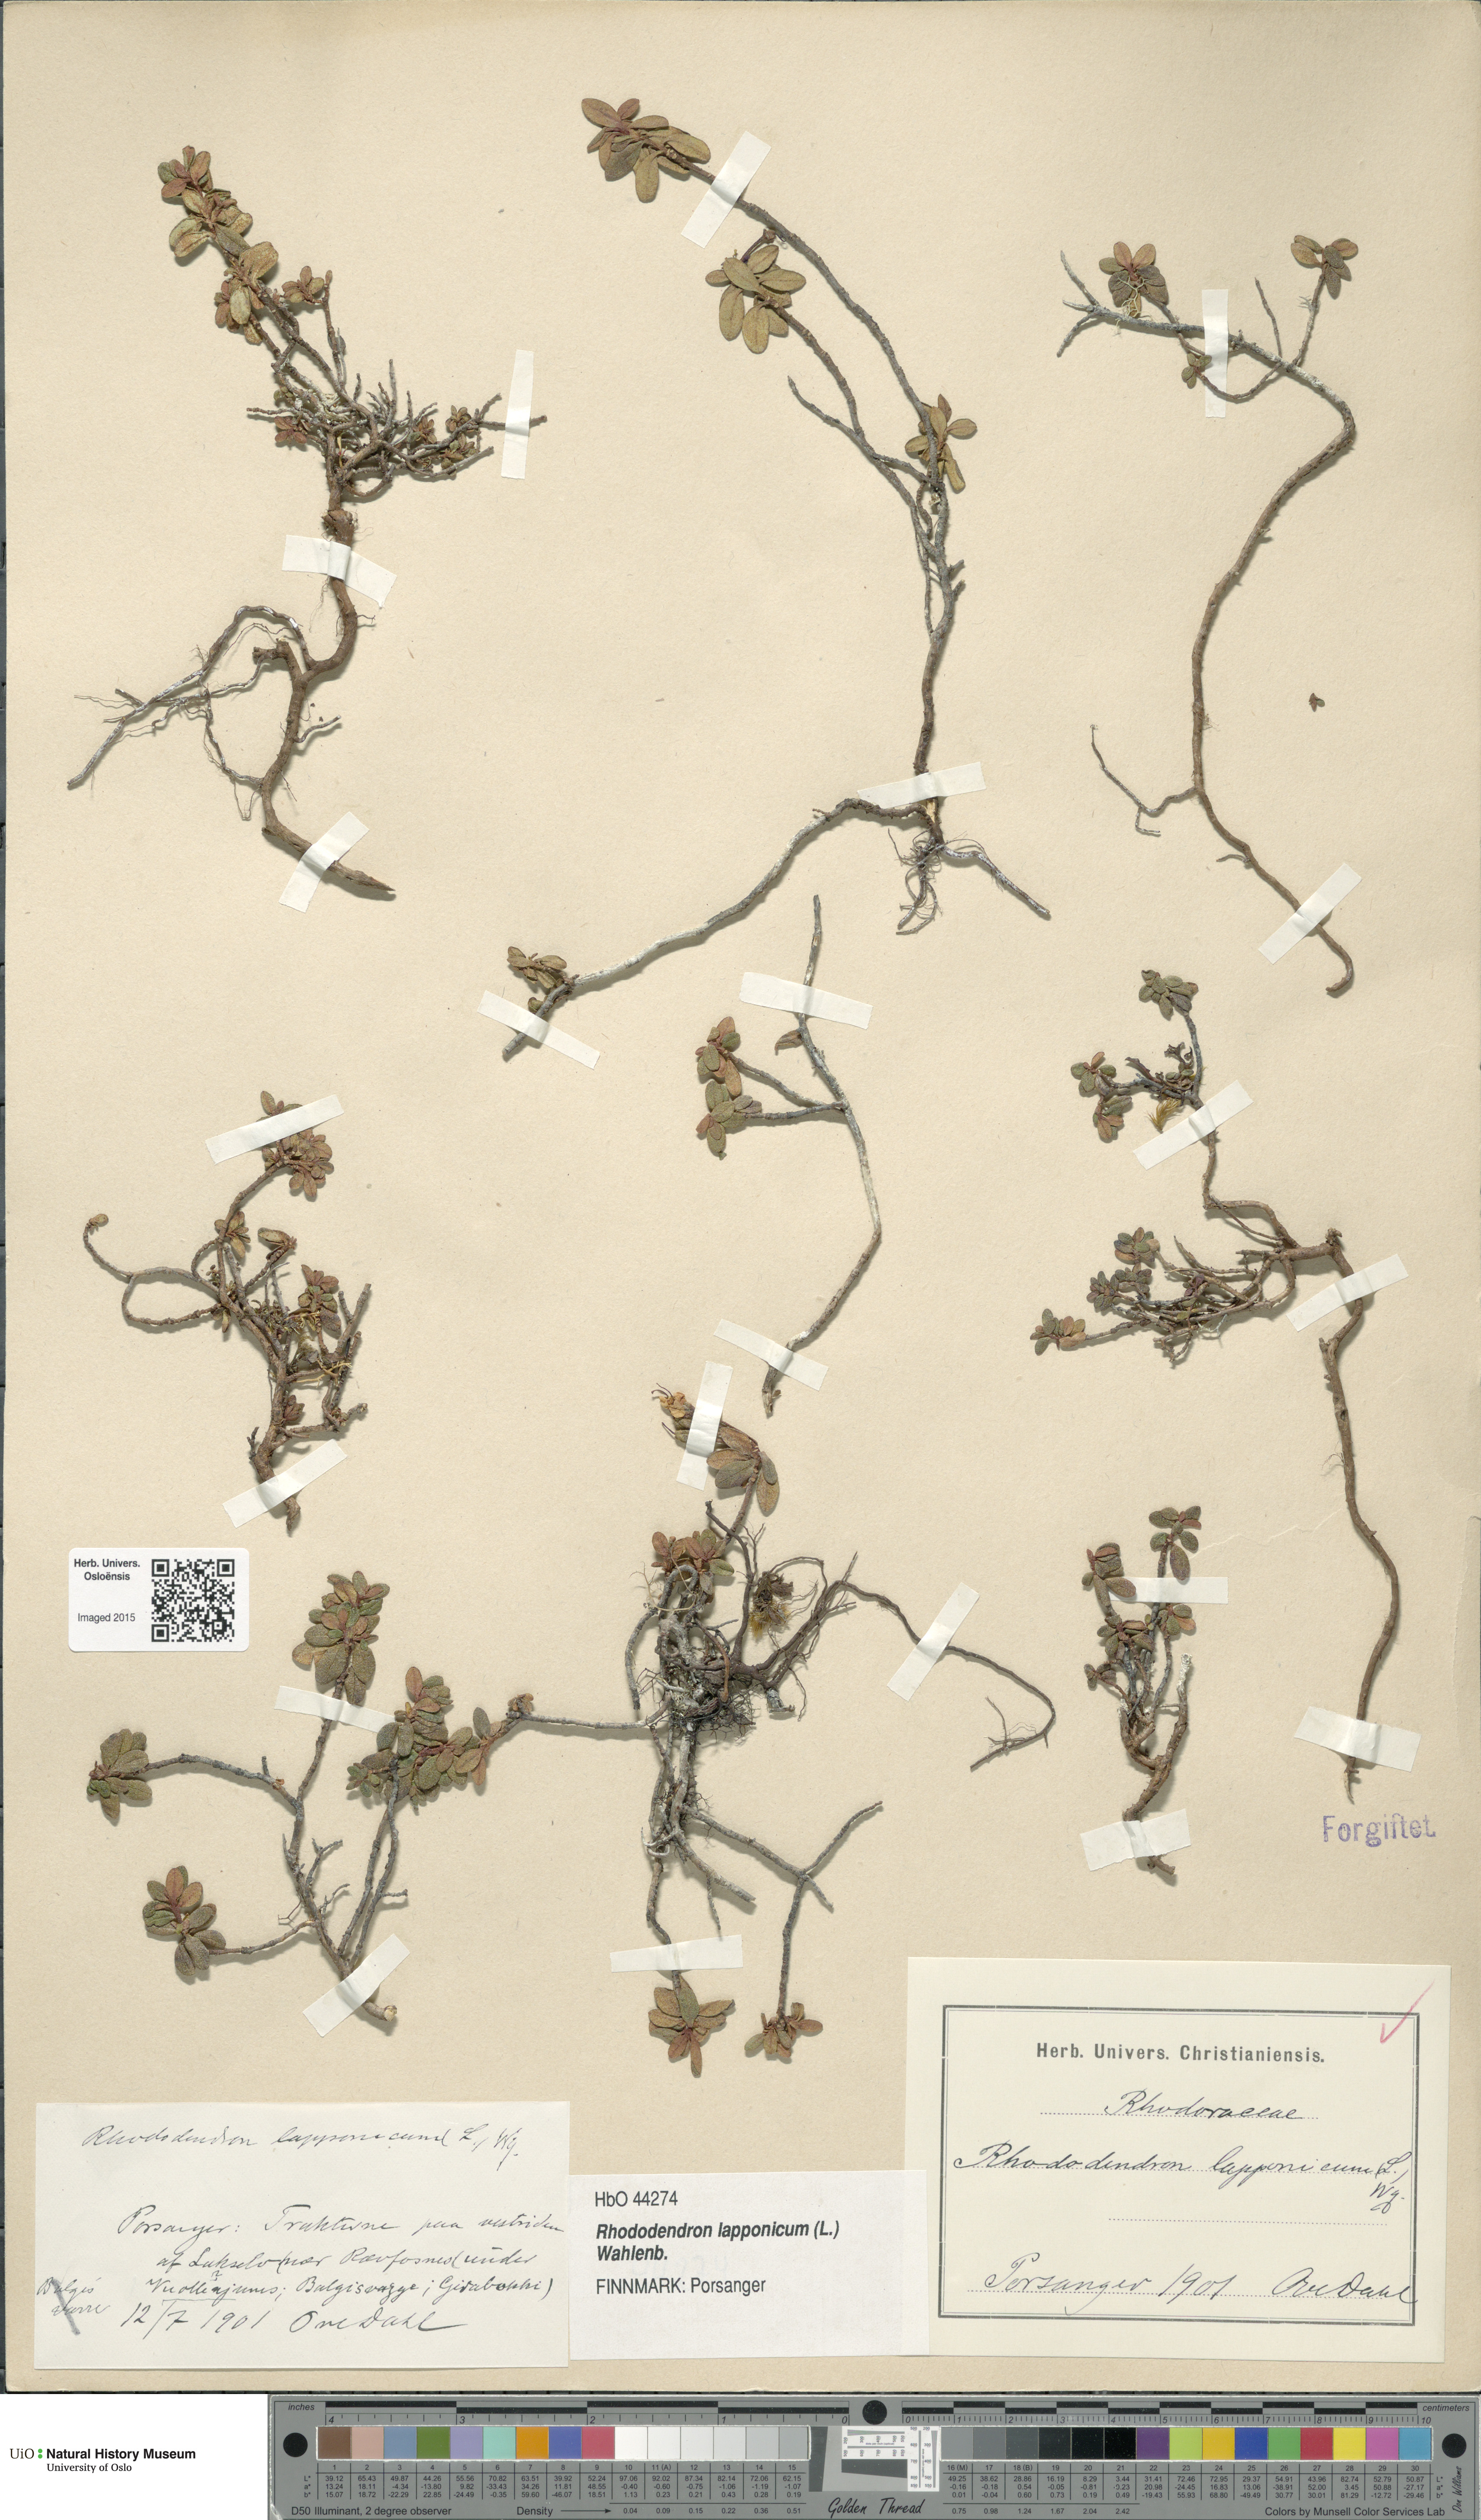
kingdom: Plantae
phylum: Tracheophyta
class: Magnoliopsida
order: Ericales
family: Ericaceae
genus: Rhododendron
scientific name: Rhododendron lapponicum
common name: Lapland rhododendron
